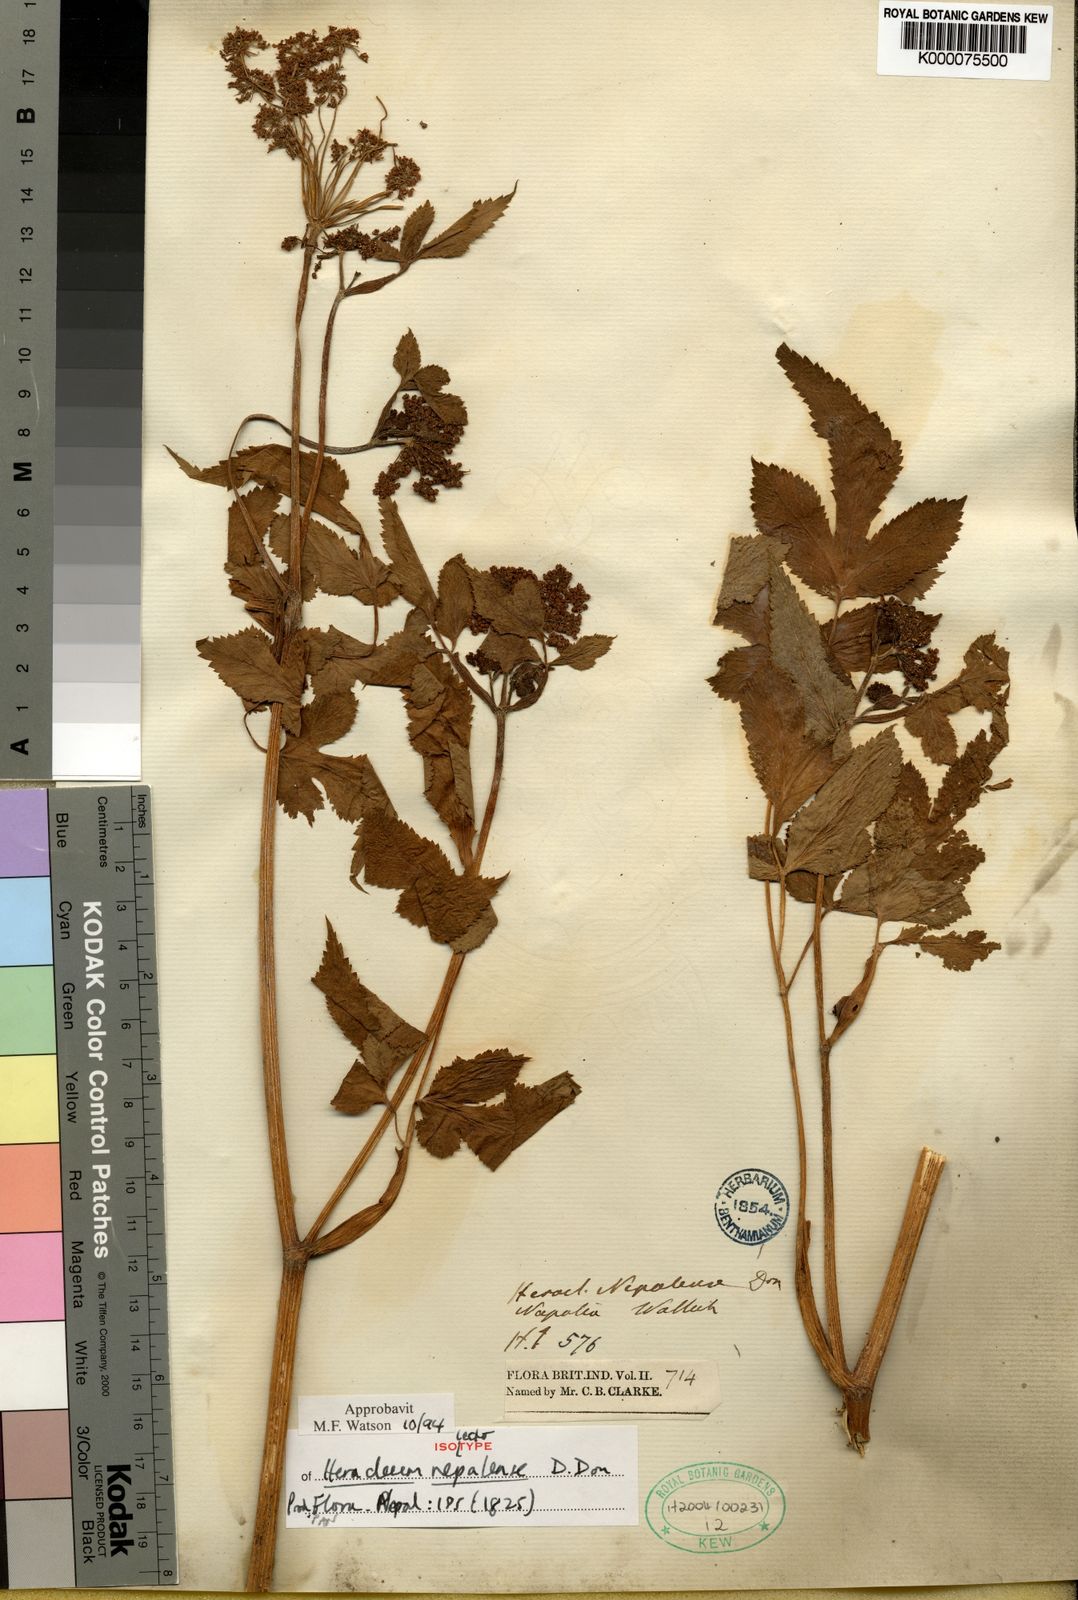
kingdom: Plantae
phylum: Tracheophyta
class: Magnoliopsida
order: Apiales
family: Apiaceae
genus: Tetrataenium
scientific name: Tetrataenium nepalense
